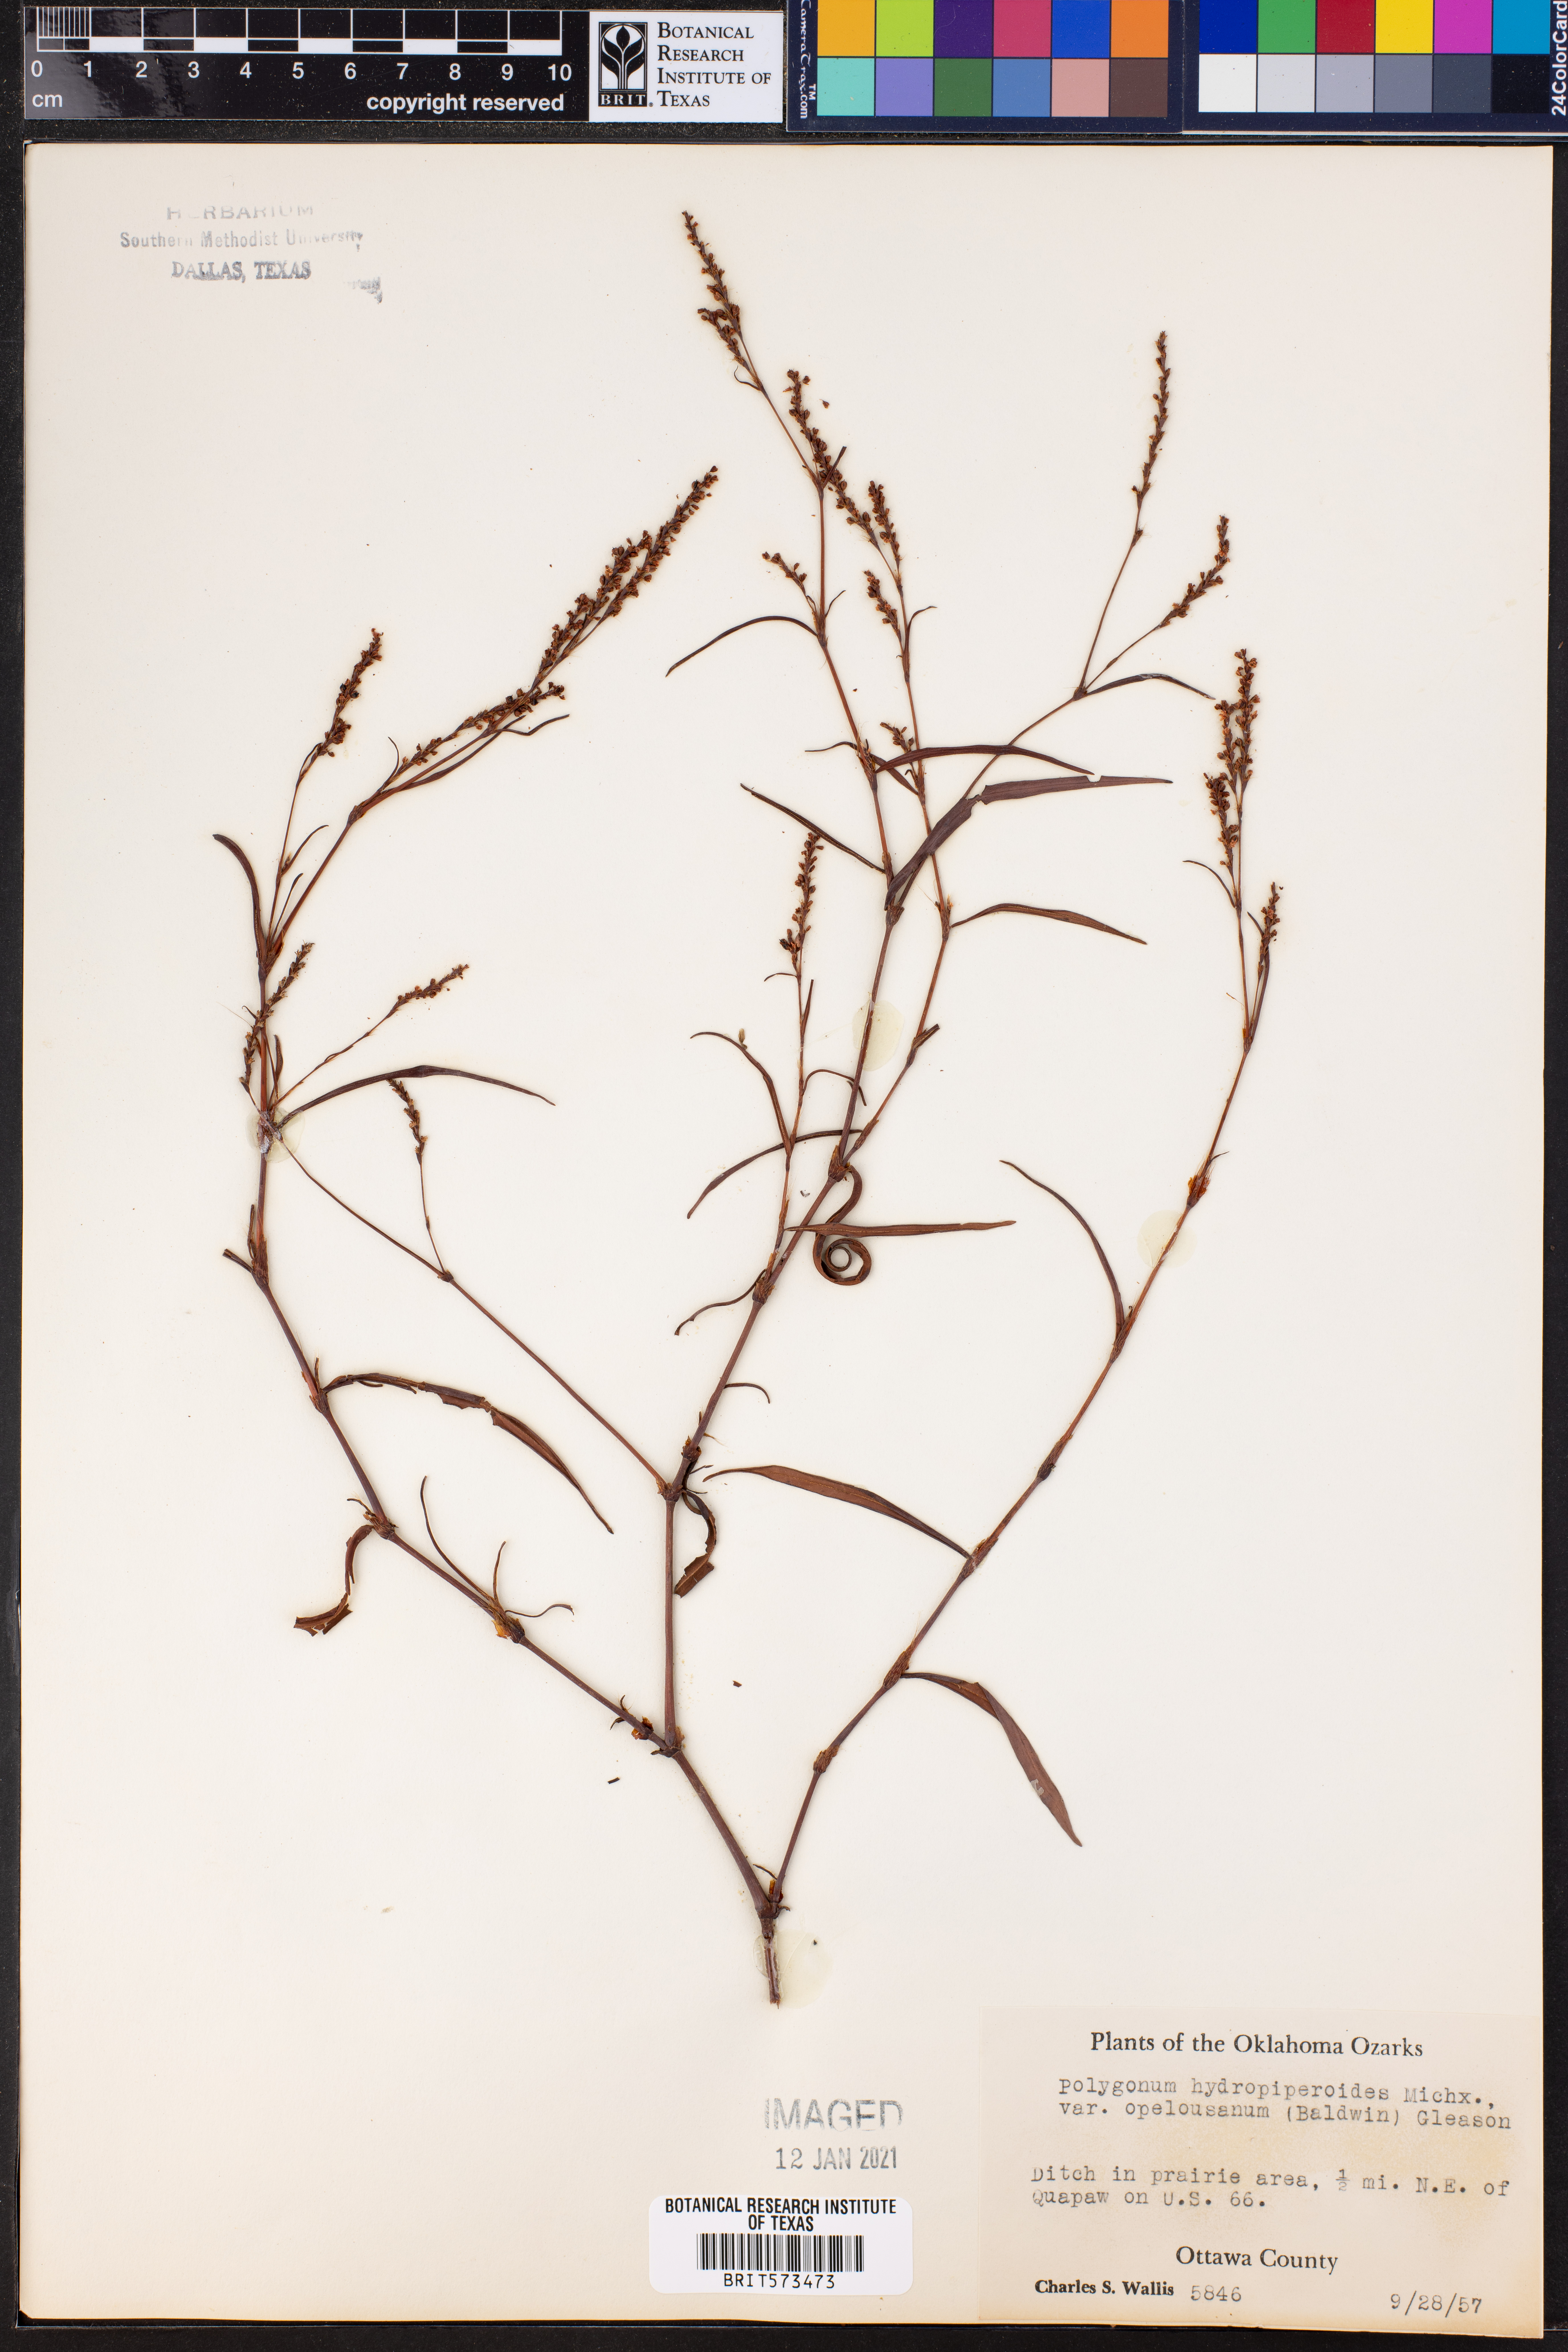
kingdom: Plantae
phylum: Tracheophyta
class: Magnoliopsida
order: Caryophyllales
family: Polygonaceae
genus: Persicaria
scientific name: Persicaria hydropiperoides
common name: Swamp smartweed
